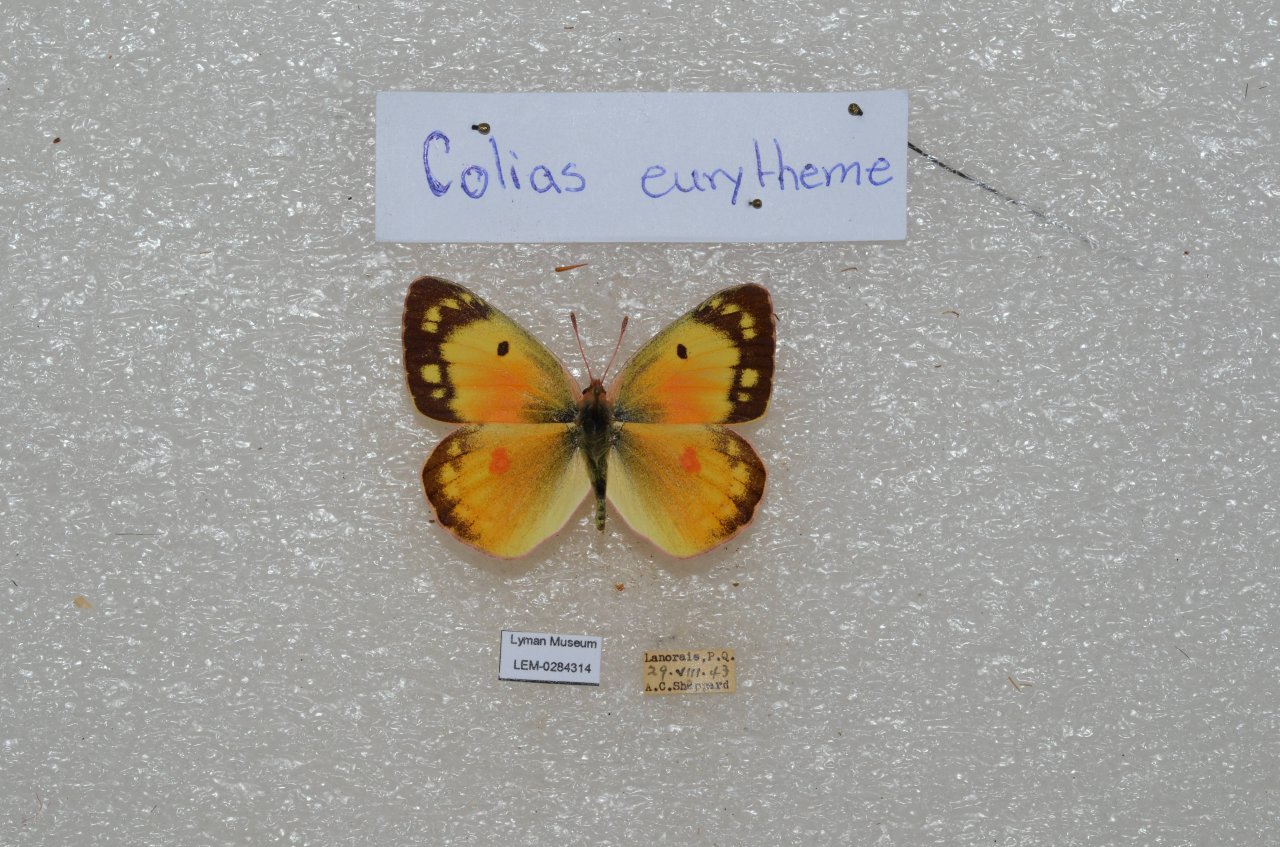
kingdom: Animalia
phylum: Arthropoda
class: Insecta
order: Lepidoptera
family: Pieridae
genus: Colias
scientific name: Colias eurytheme
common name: Orange Sulphur
